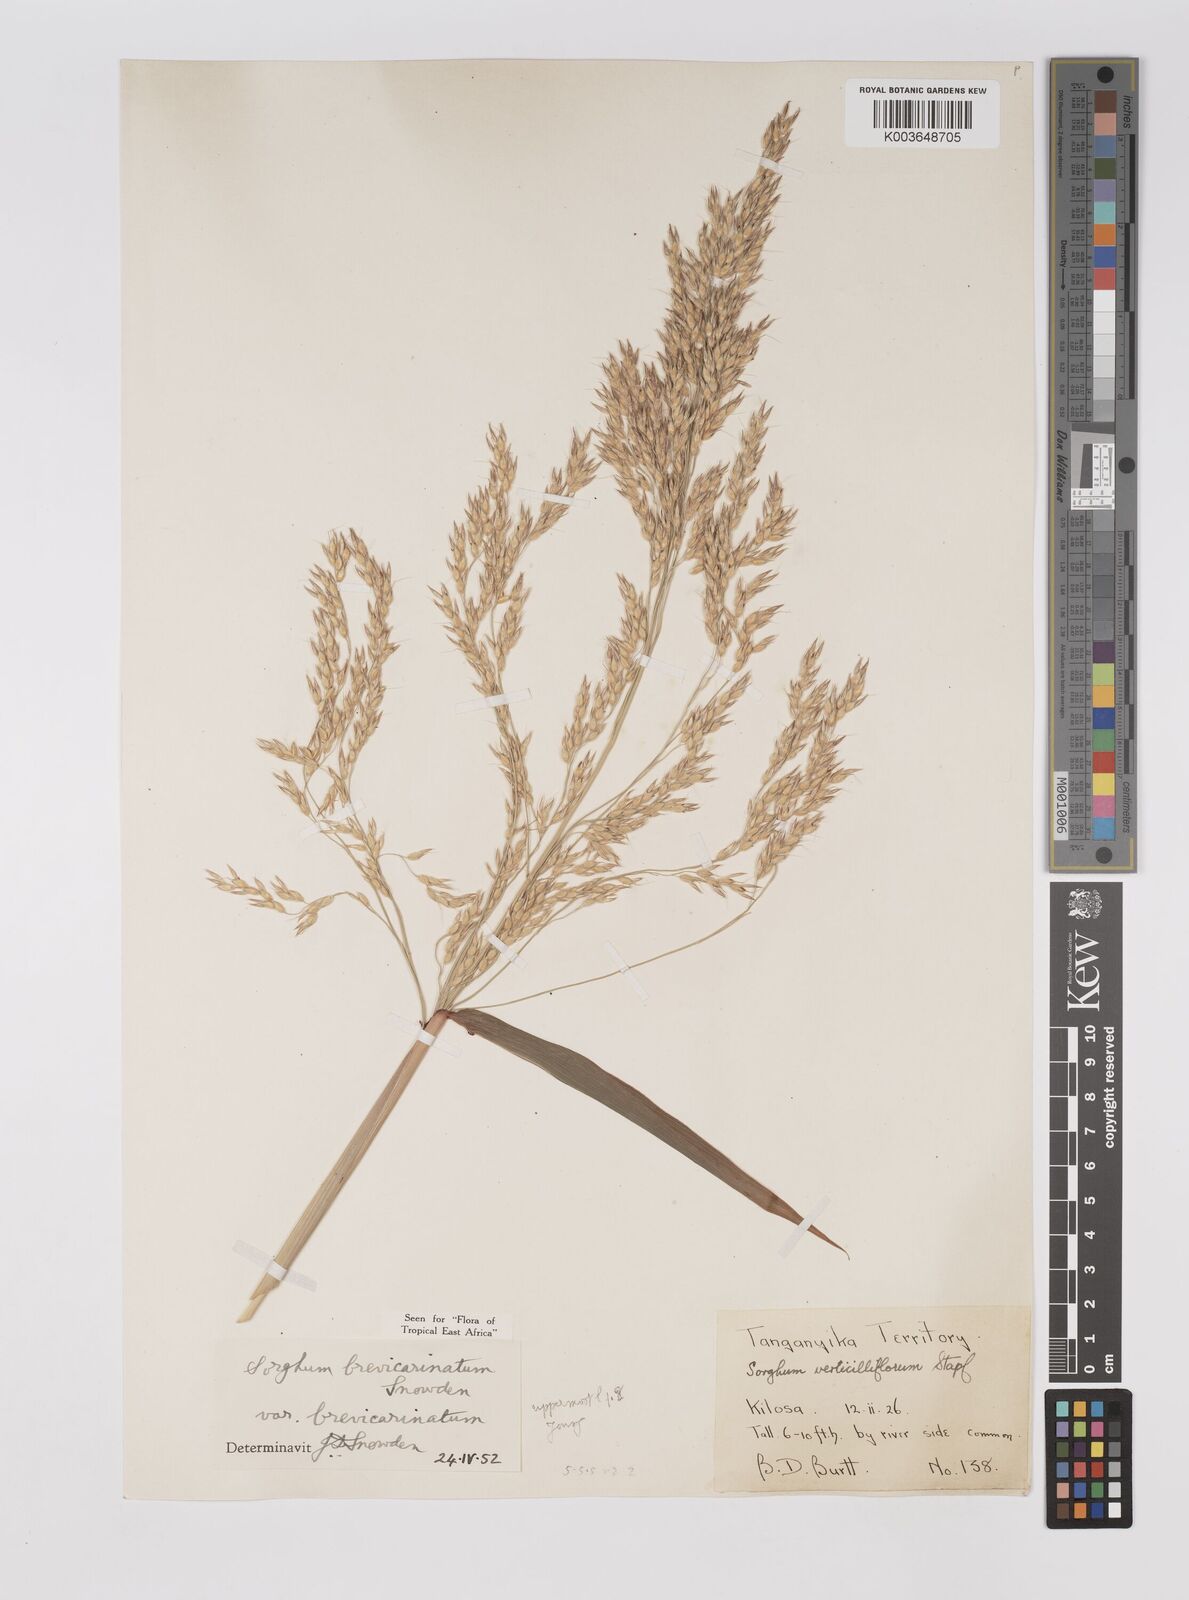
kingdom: Plantae
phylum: Tracheophyta
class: Liliopsida
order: Poales
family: Poaceae
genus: Sorghum
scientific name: Sorghum arundinaceum
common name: Sorghum
